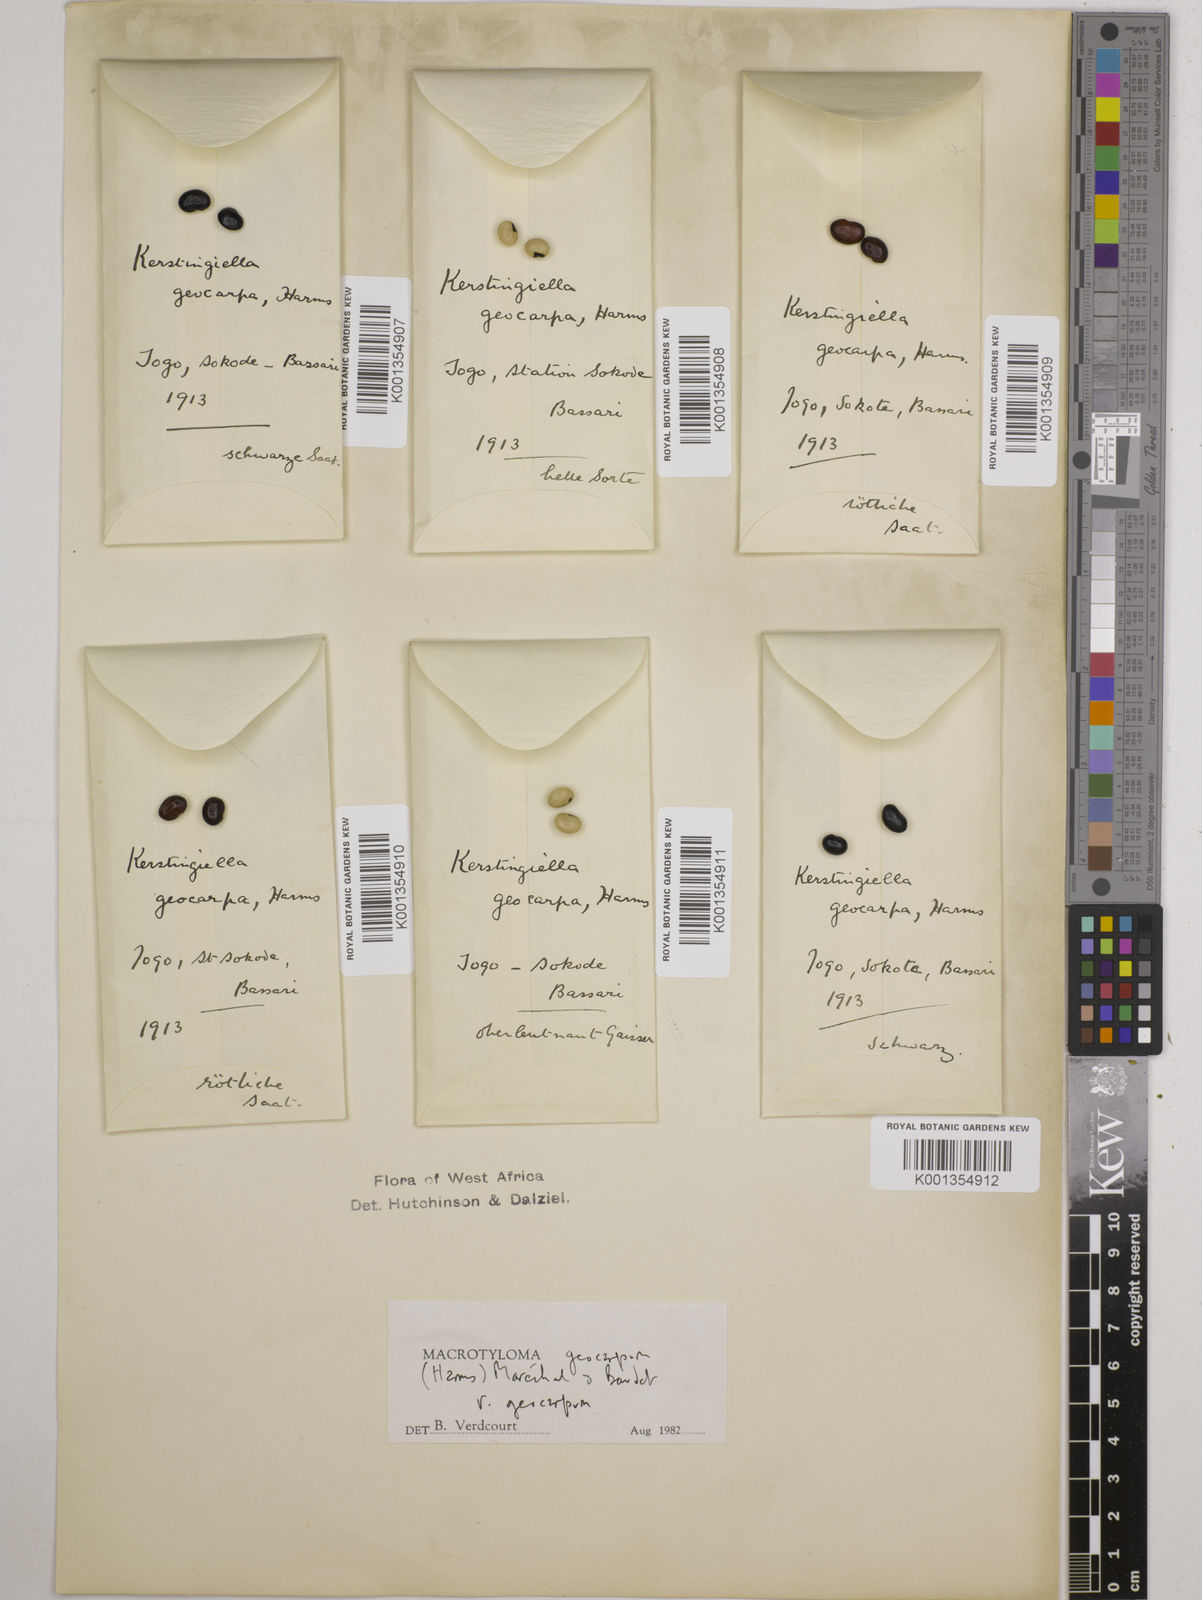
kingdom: Plantae
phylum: Tracheophyta
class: Magnoliopsida
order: Fabales
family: Fabaceae
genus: Macrotyloma
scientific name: Macrotyloma geocarpum
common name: Ground-bean
